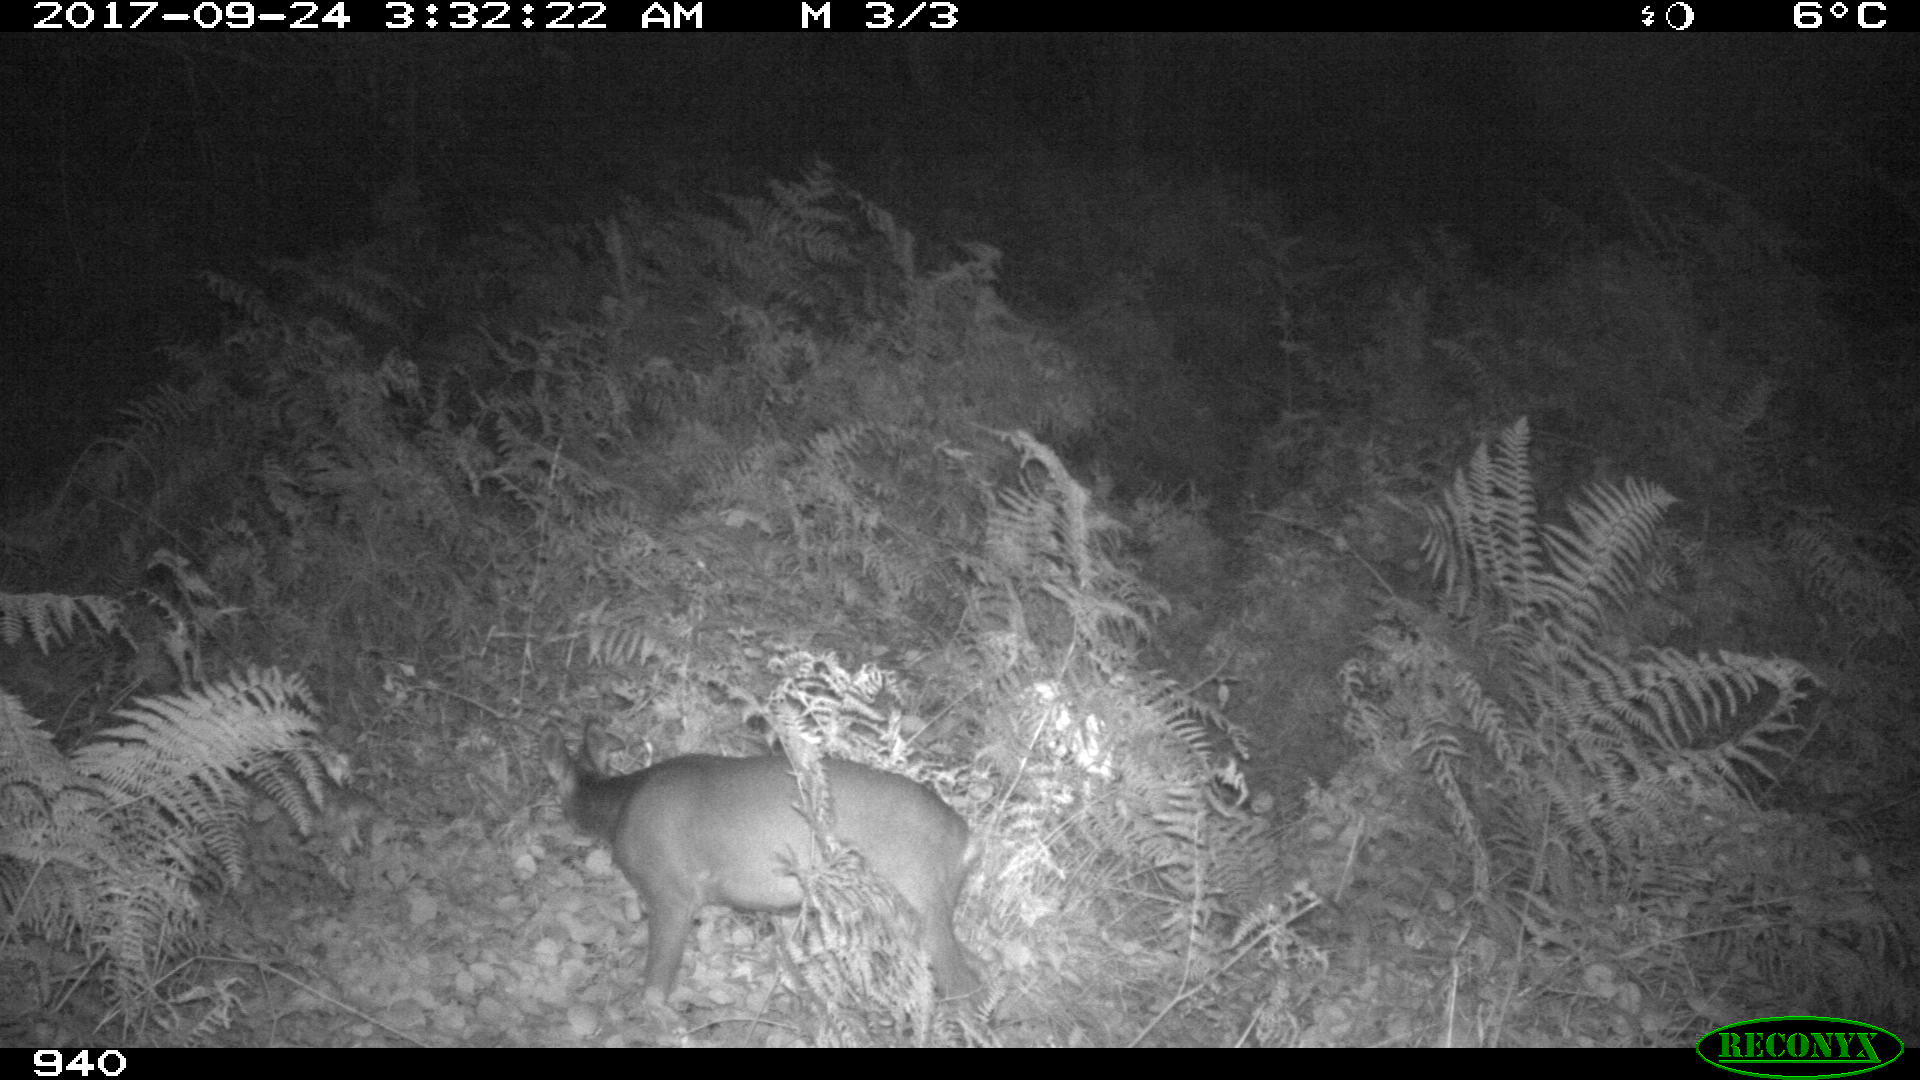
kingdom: Animalia
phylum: Chordata
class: Mammalia
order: Artiodactyla
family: Cervidae
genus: Capreolus
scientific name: Capreolus capreolus
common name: Western roe deer
